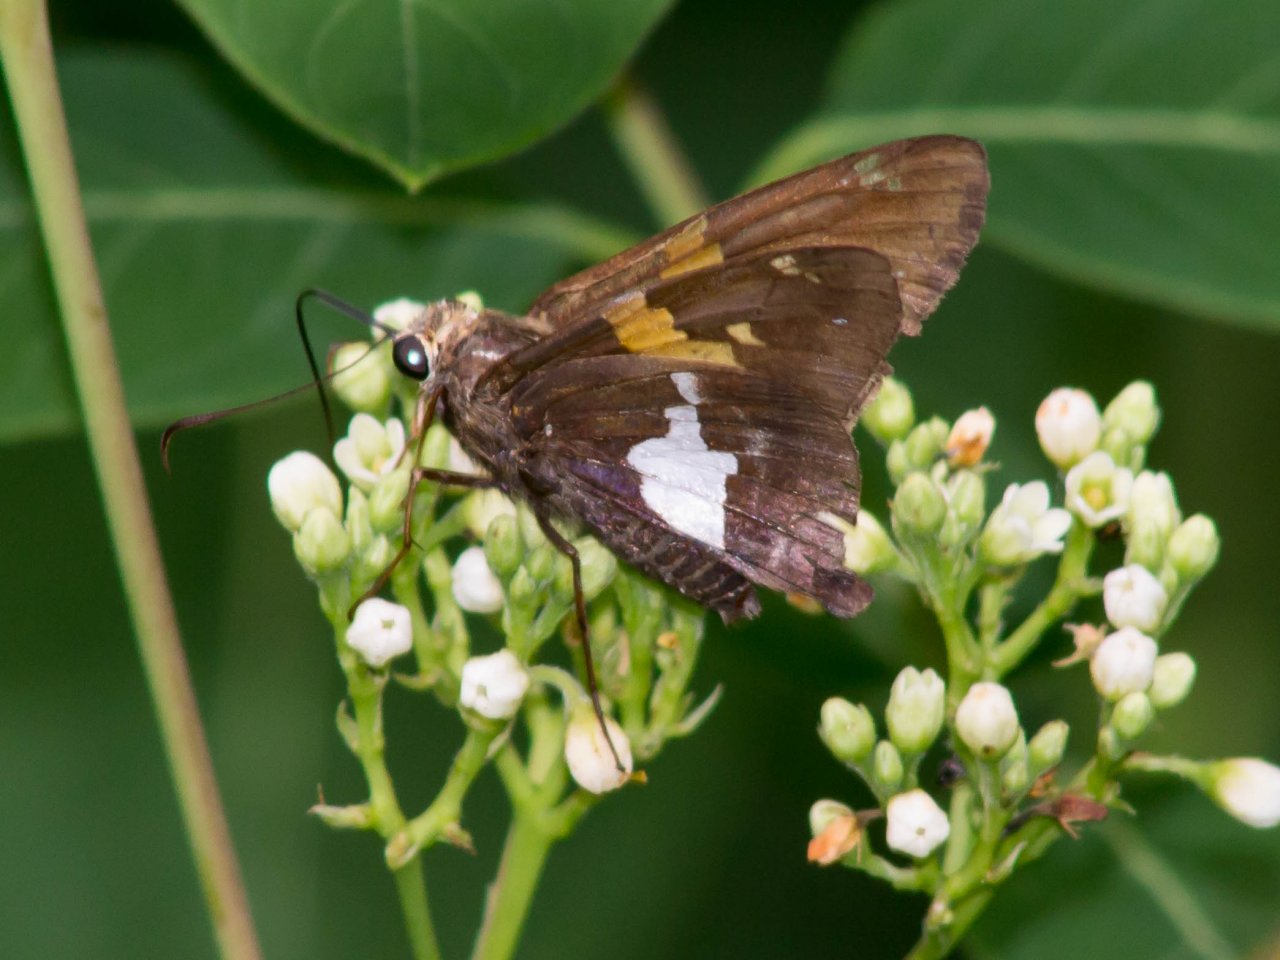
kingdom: Animalia
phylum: Arthropoda
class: Insecta
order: Lepidoptera
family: Hesperiidae
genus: Epargyreus
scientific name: Epargyreus clarus
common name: Silver-spotted Skipper
